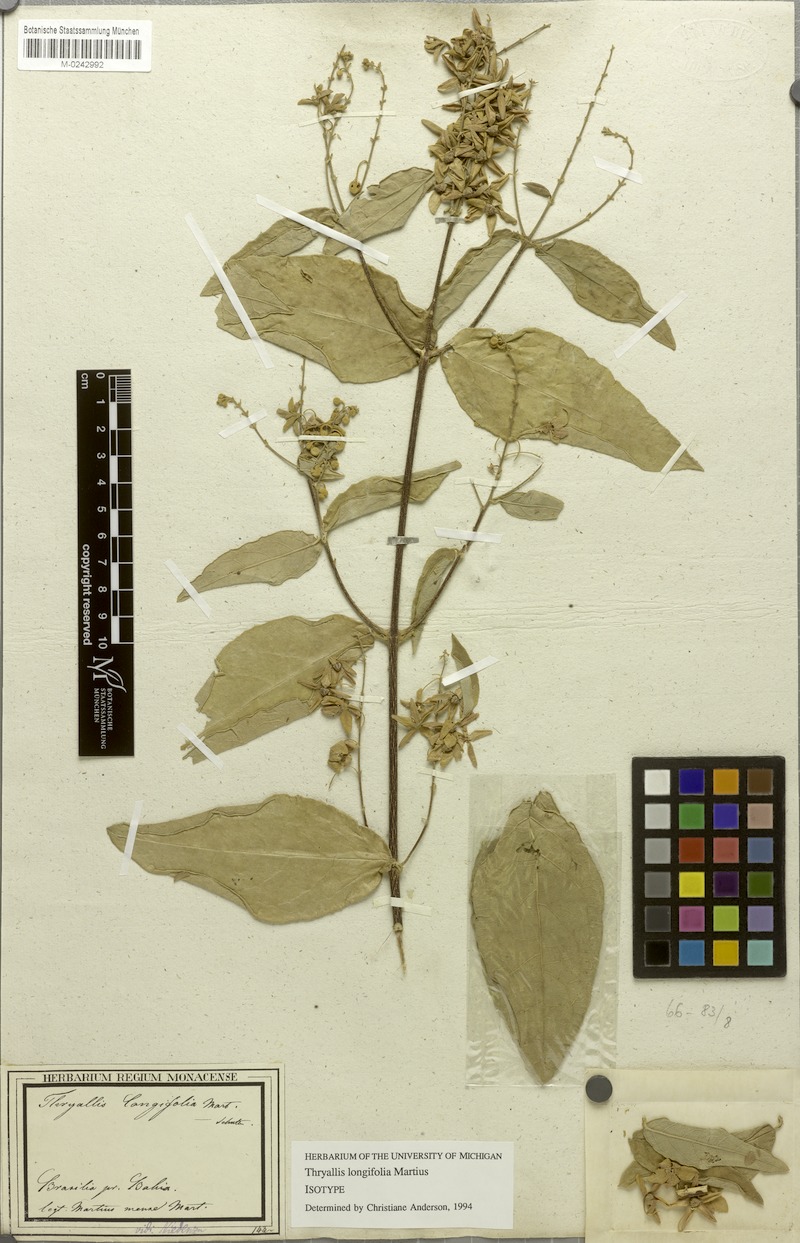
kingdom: Plantae
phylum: Tracheophyta
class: Magnoliopsida
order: Malpighiales
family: Malpighiaceae
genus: Thryallis
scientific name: Thryallis longifolia
